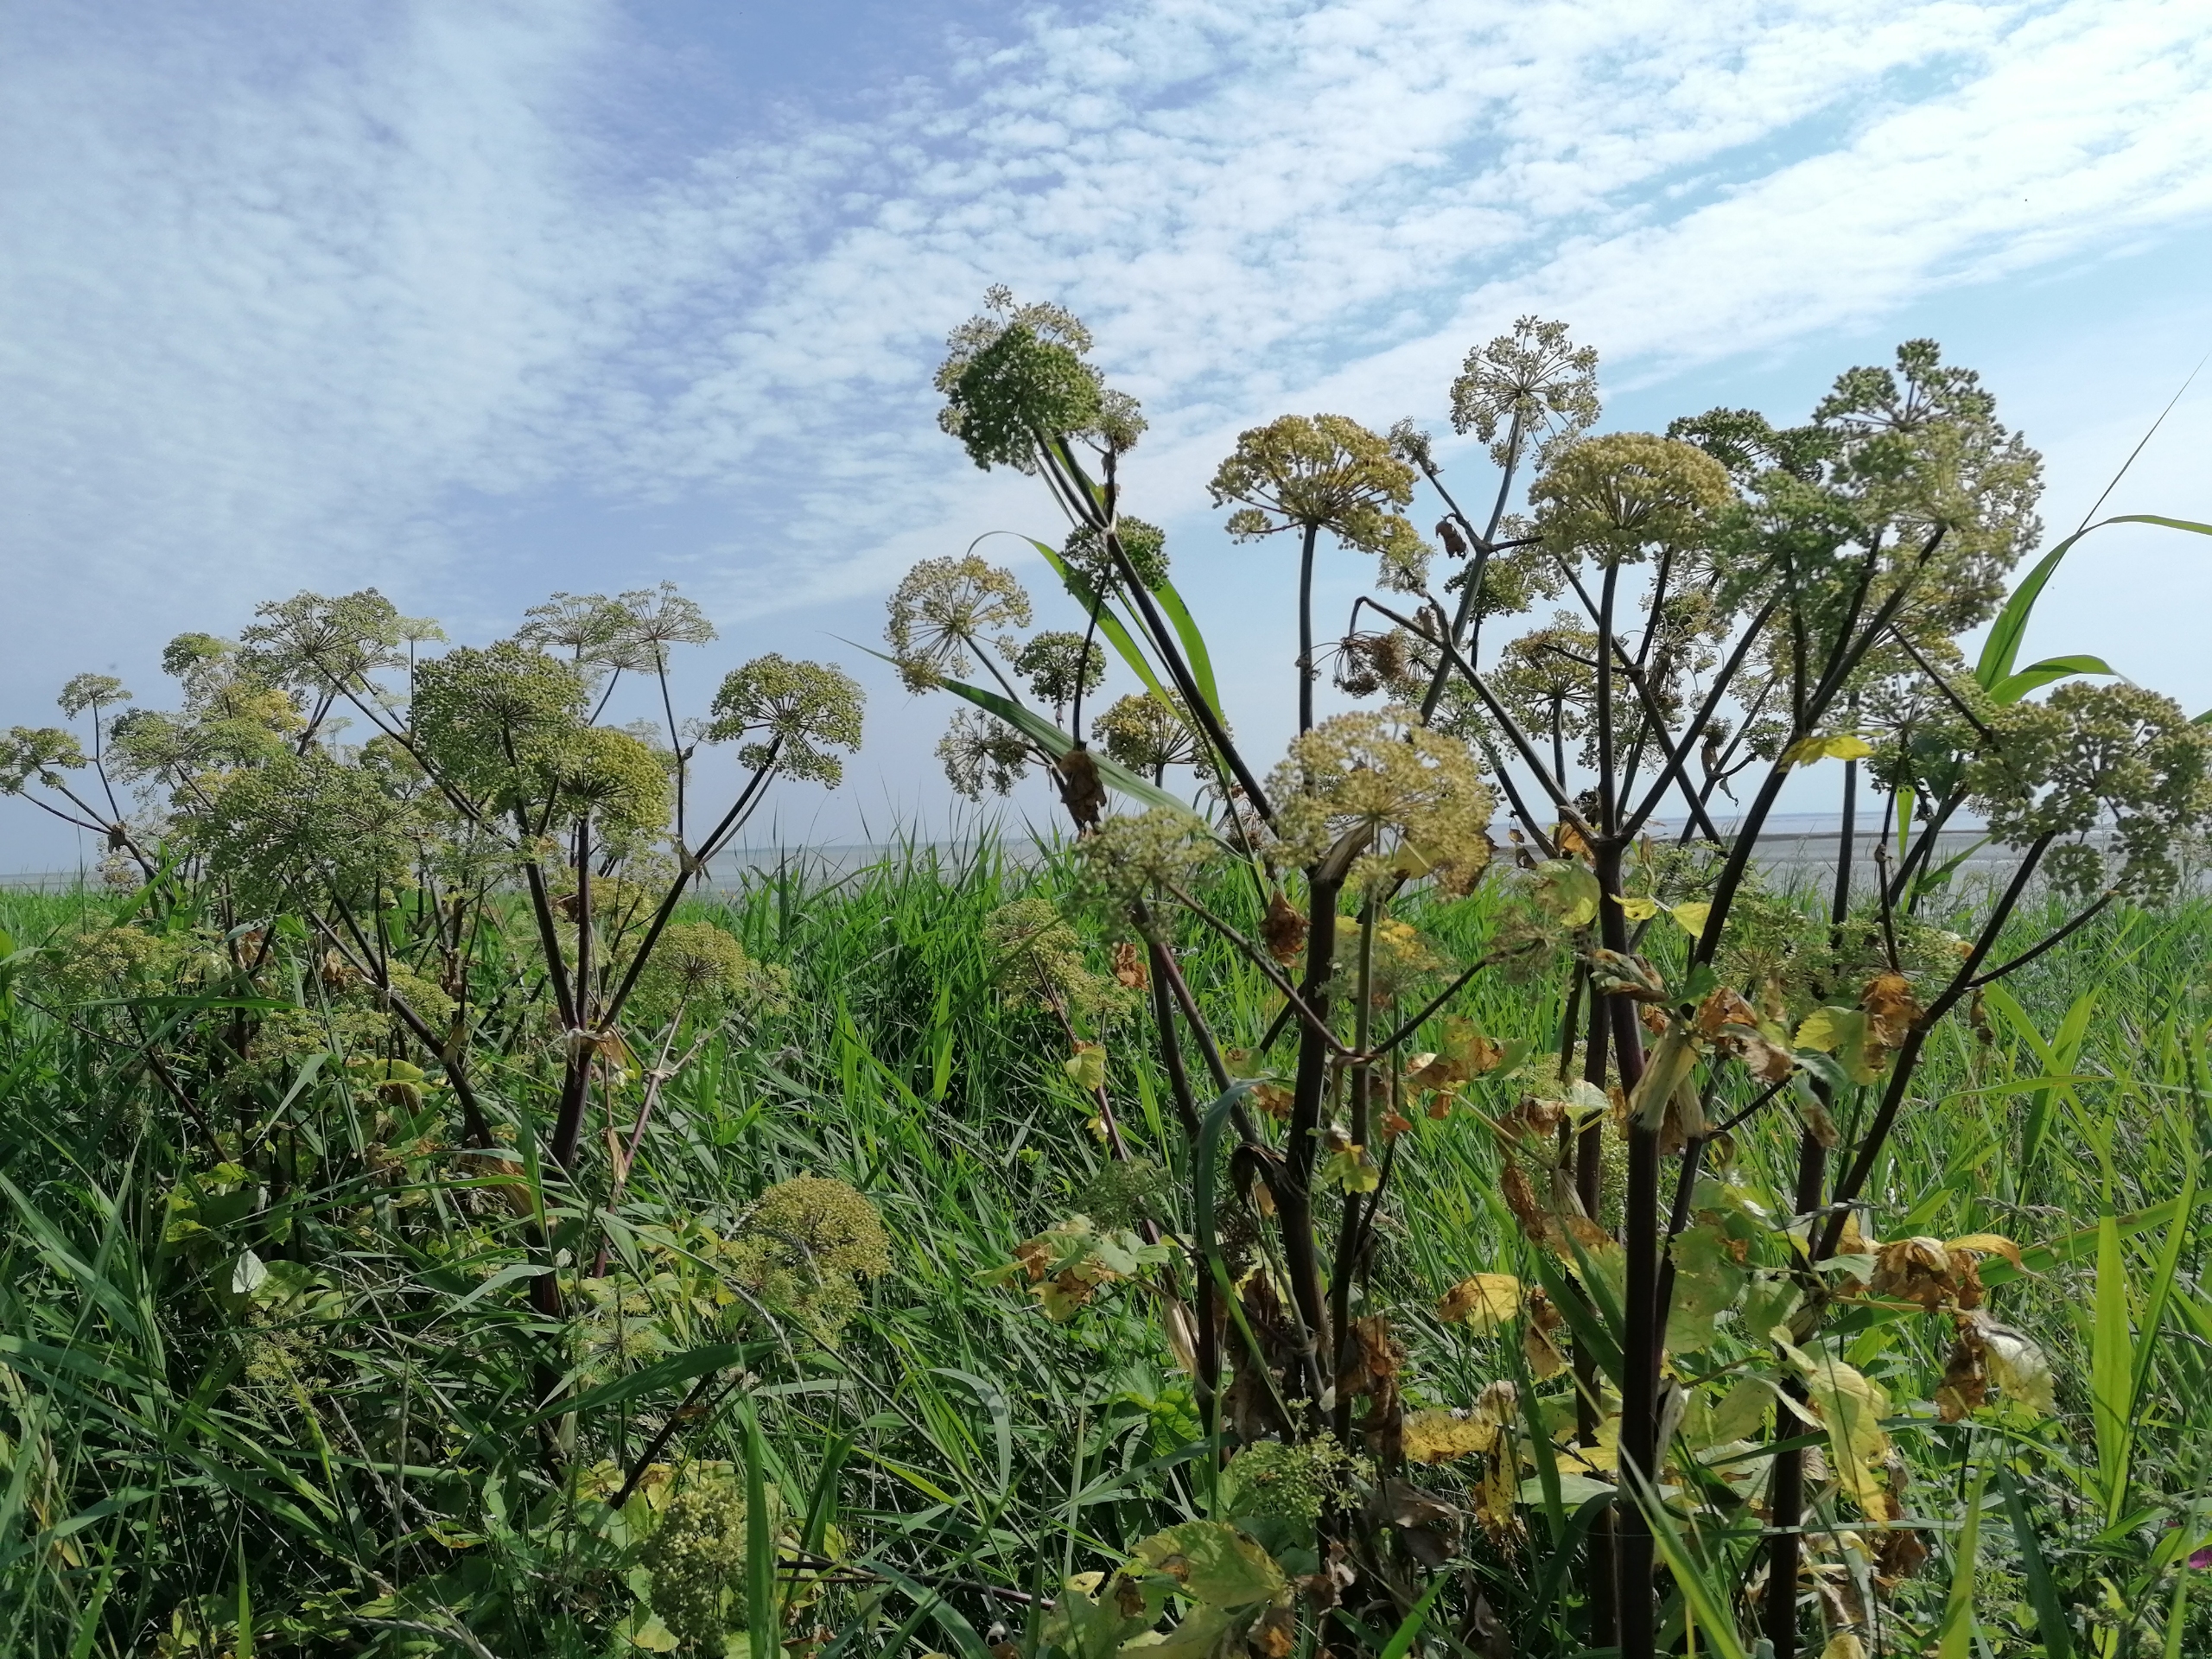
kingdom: Plantae
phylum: Tracheophyta
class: Magnoliopsida
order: Apiales
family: Apiaceae
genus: Angelica
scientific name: Angelica archangelica
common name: Kvan
